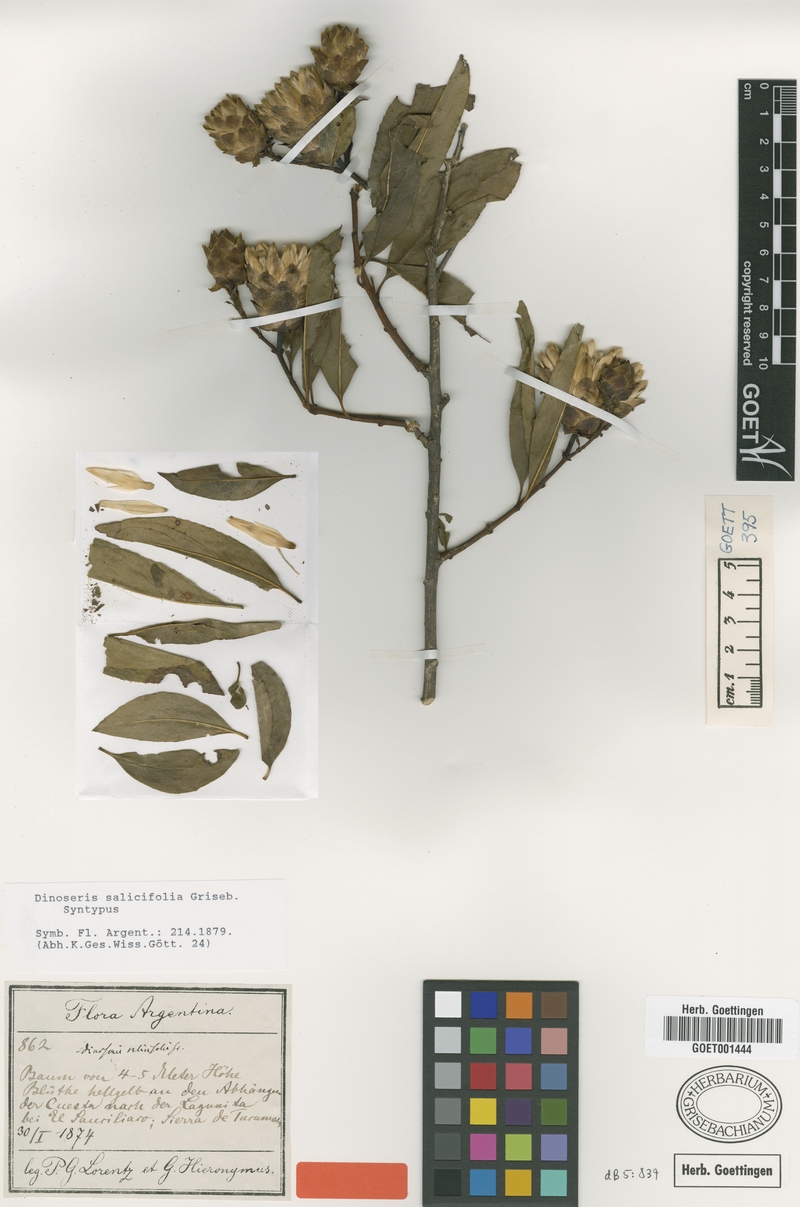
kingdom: Plantae
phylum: Tracheophyta
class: Magnoliopsida
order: Asterales
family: Asteraceae
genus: Hyaloseris
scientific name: Hyaloseris salicifolia
